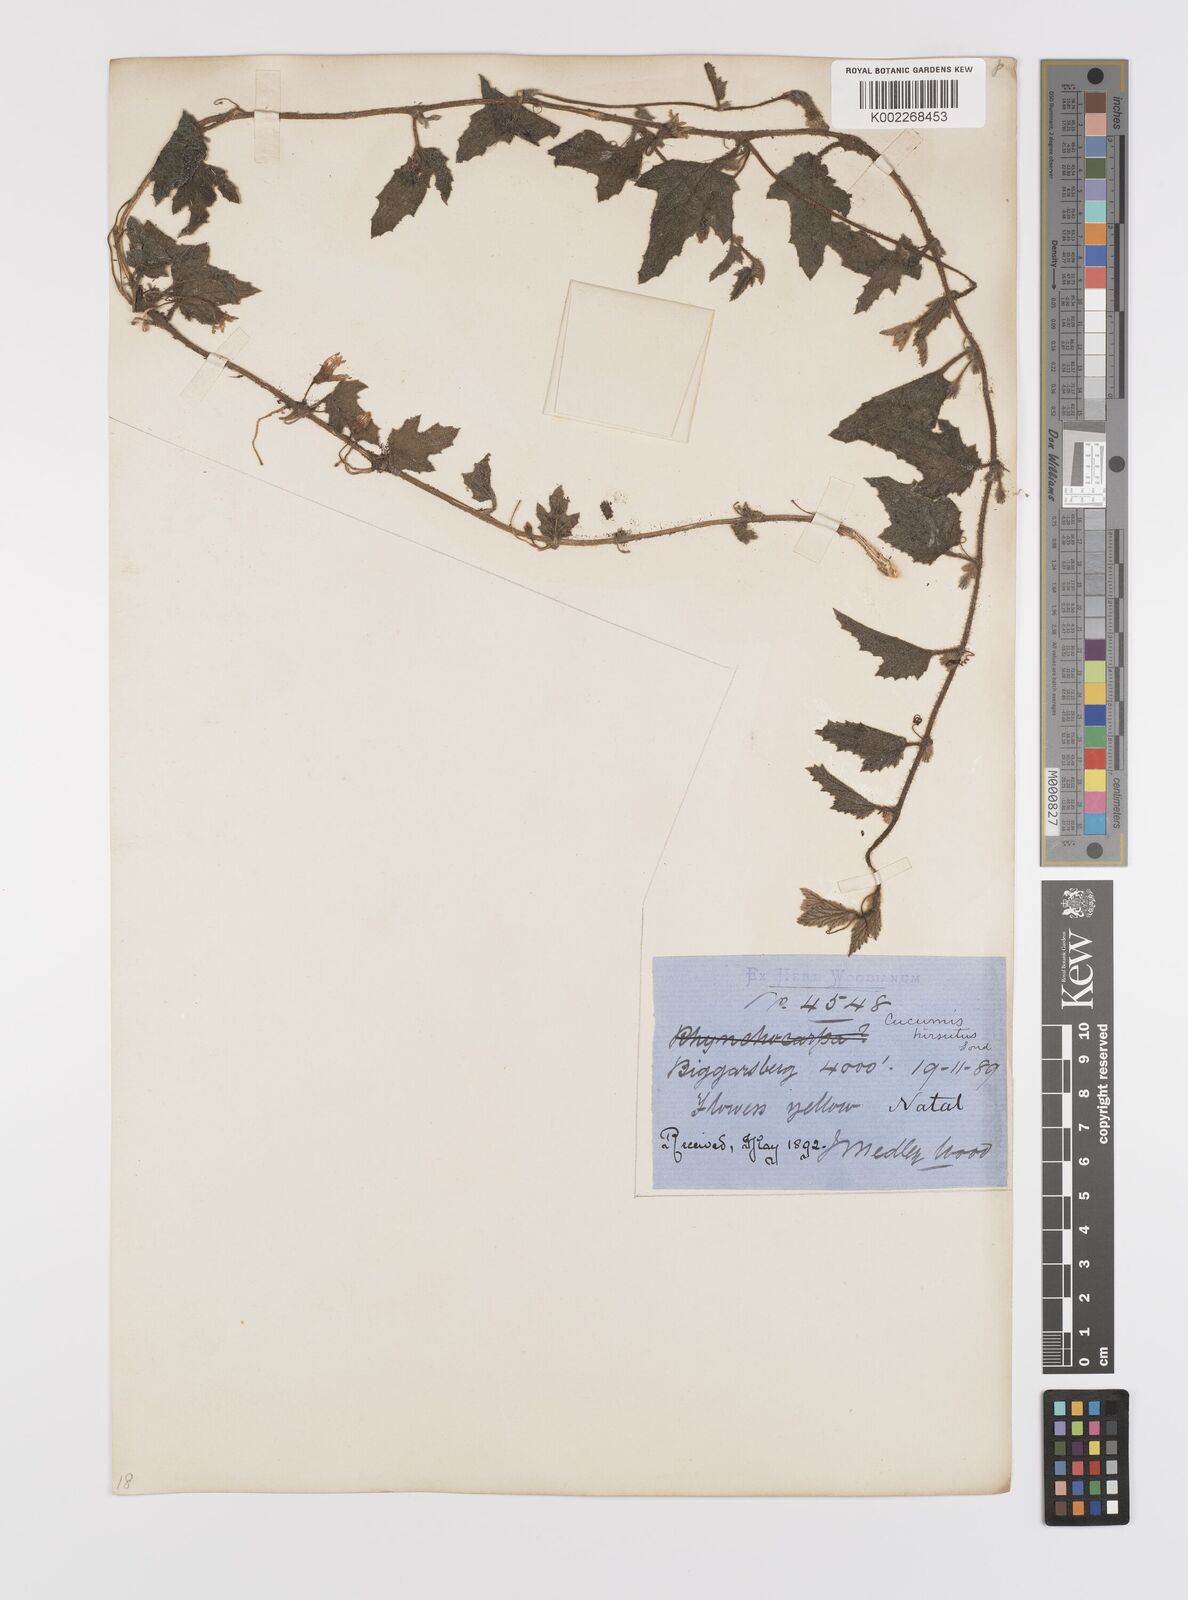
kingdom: Plantae
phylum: Tracheophyta
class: Magnoliopsida
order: Cucurbitales
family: Cucurbitaceae
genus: Cucumis
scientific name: Cucumis hirsutus
